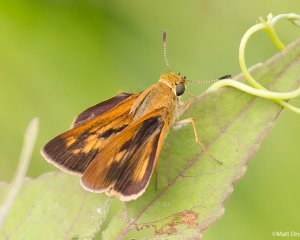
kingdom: Animalia
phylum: Arthropoda
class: Insecta
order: Lepidoptera
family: Hesperiidae
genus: Euphyes
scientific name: Euphyes dion
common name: Dion Skipper
